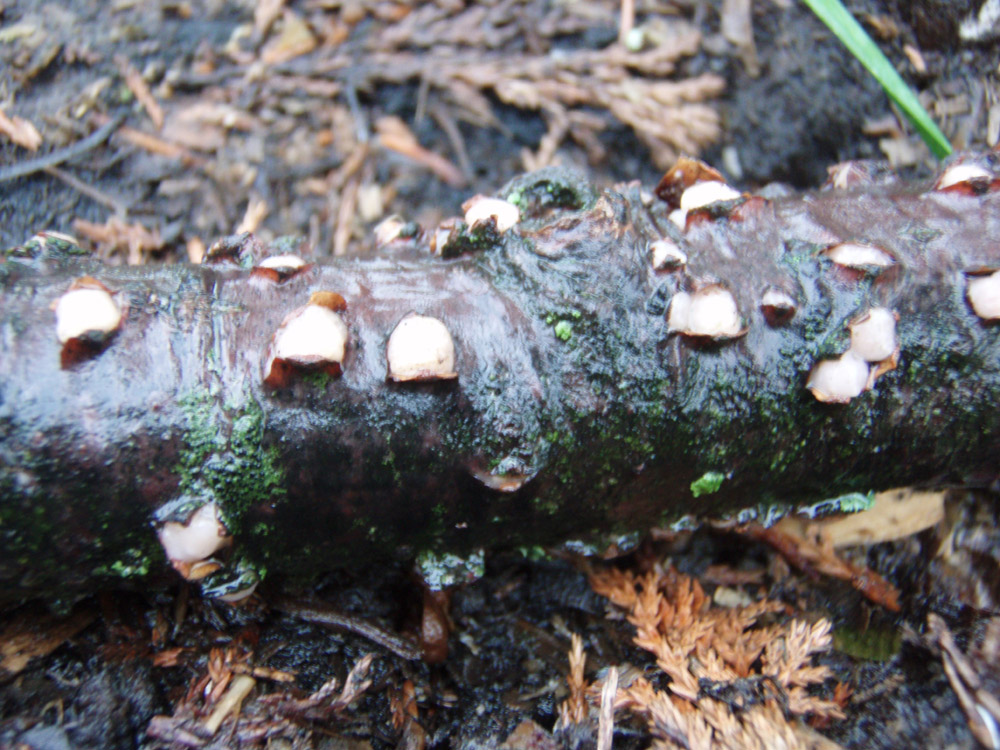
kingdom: Fungi
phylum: Basidiomycota
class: Pucciniomycetes
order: Platygloeales
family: Platygloeaceae
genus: Platygloea
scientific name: Platygloea disciformis
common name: linde-slimklat
